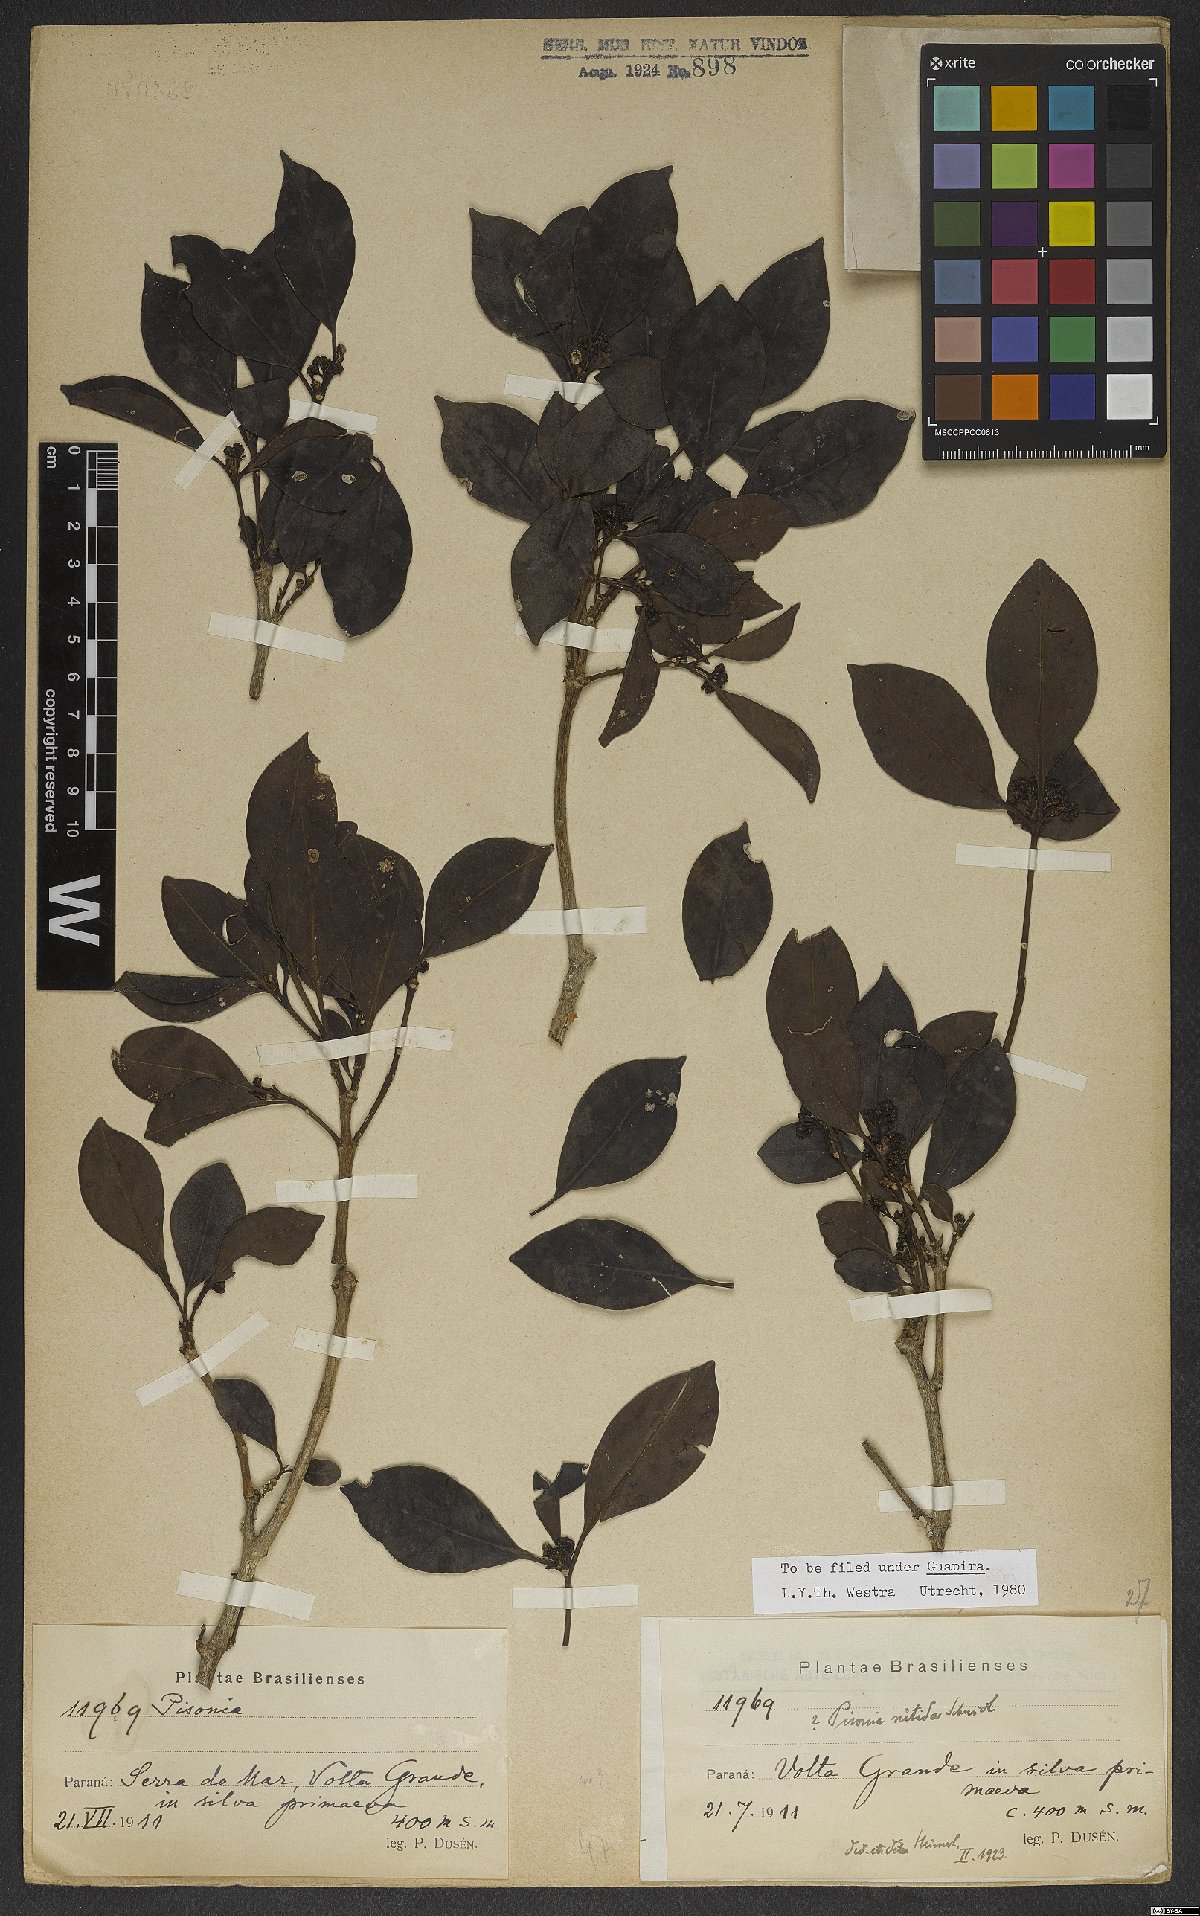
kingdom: Plantae
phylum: Tracheophyta
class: Magnoliopsida
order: Caryophyllales
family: Nyctaginaceae
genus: Guapira
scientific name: Guapira nitida
